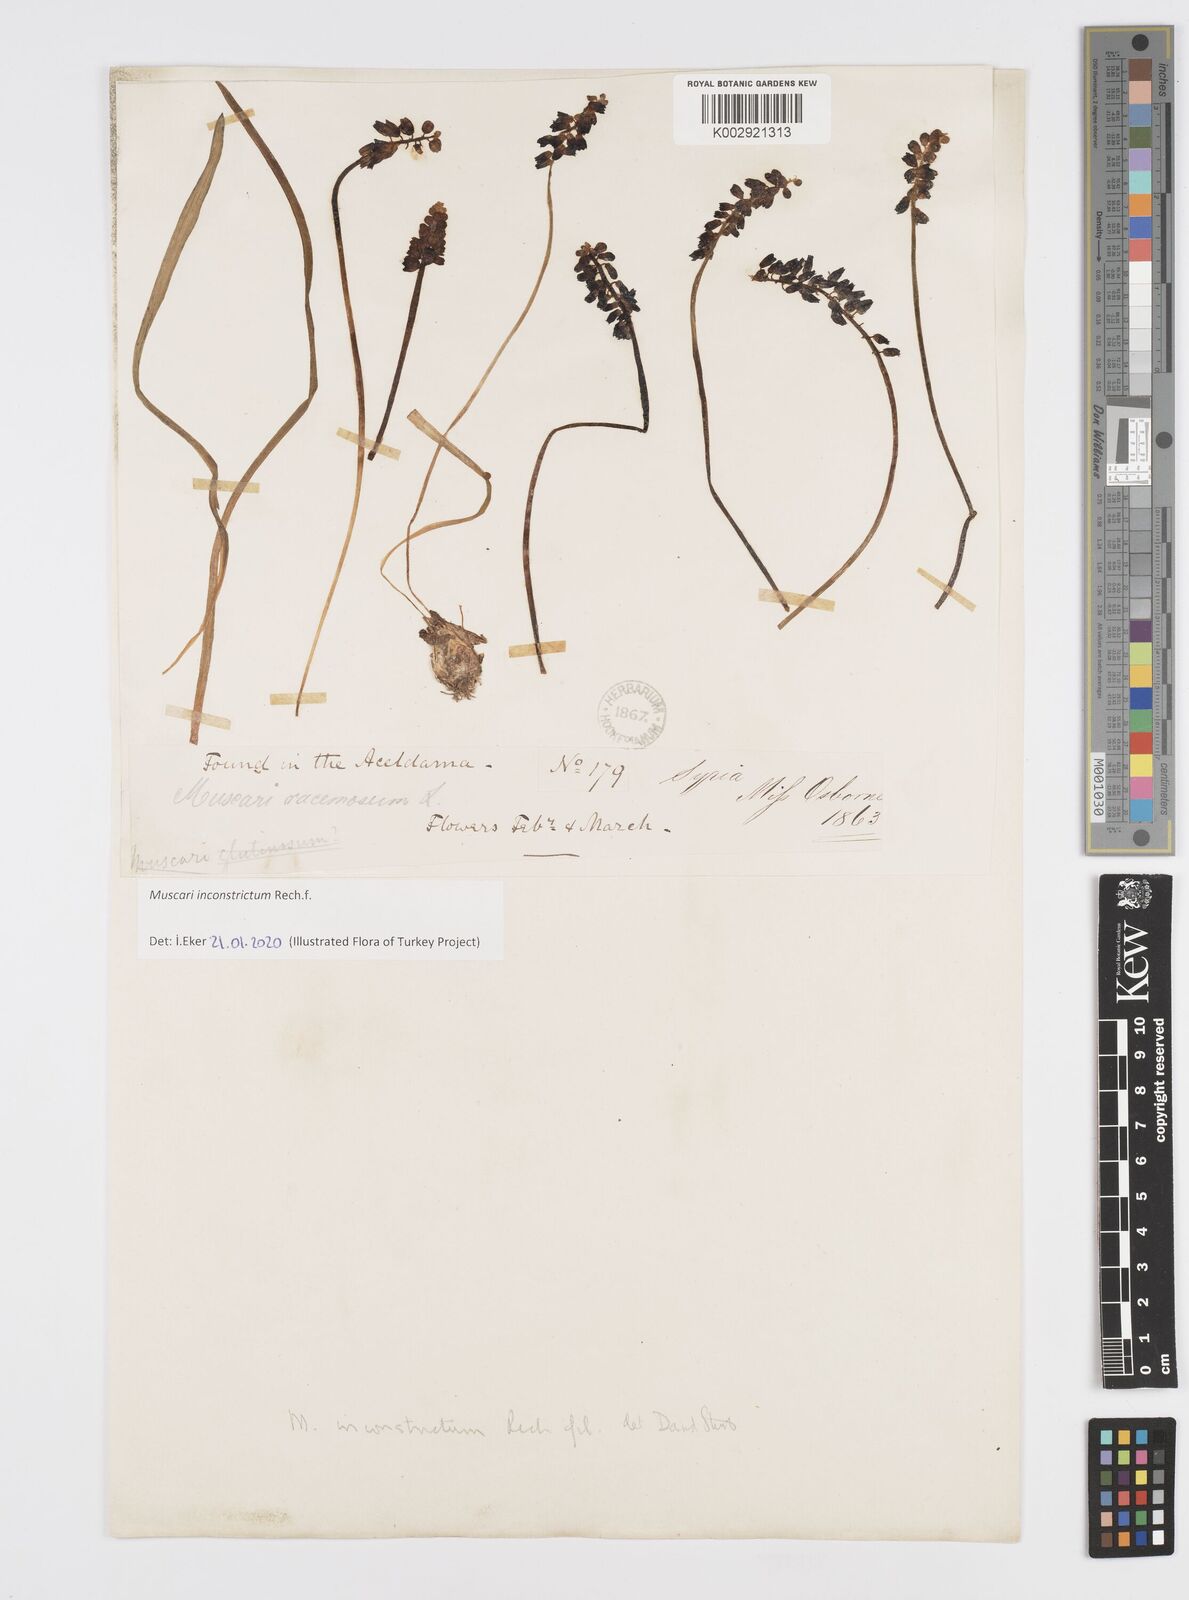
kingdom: Plantae
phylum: Tracheophyta
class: Liliopsida
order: Asparagales
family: Asparagaceae
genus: Muscari
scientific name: Muscari inconstrictum
